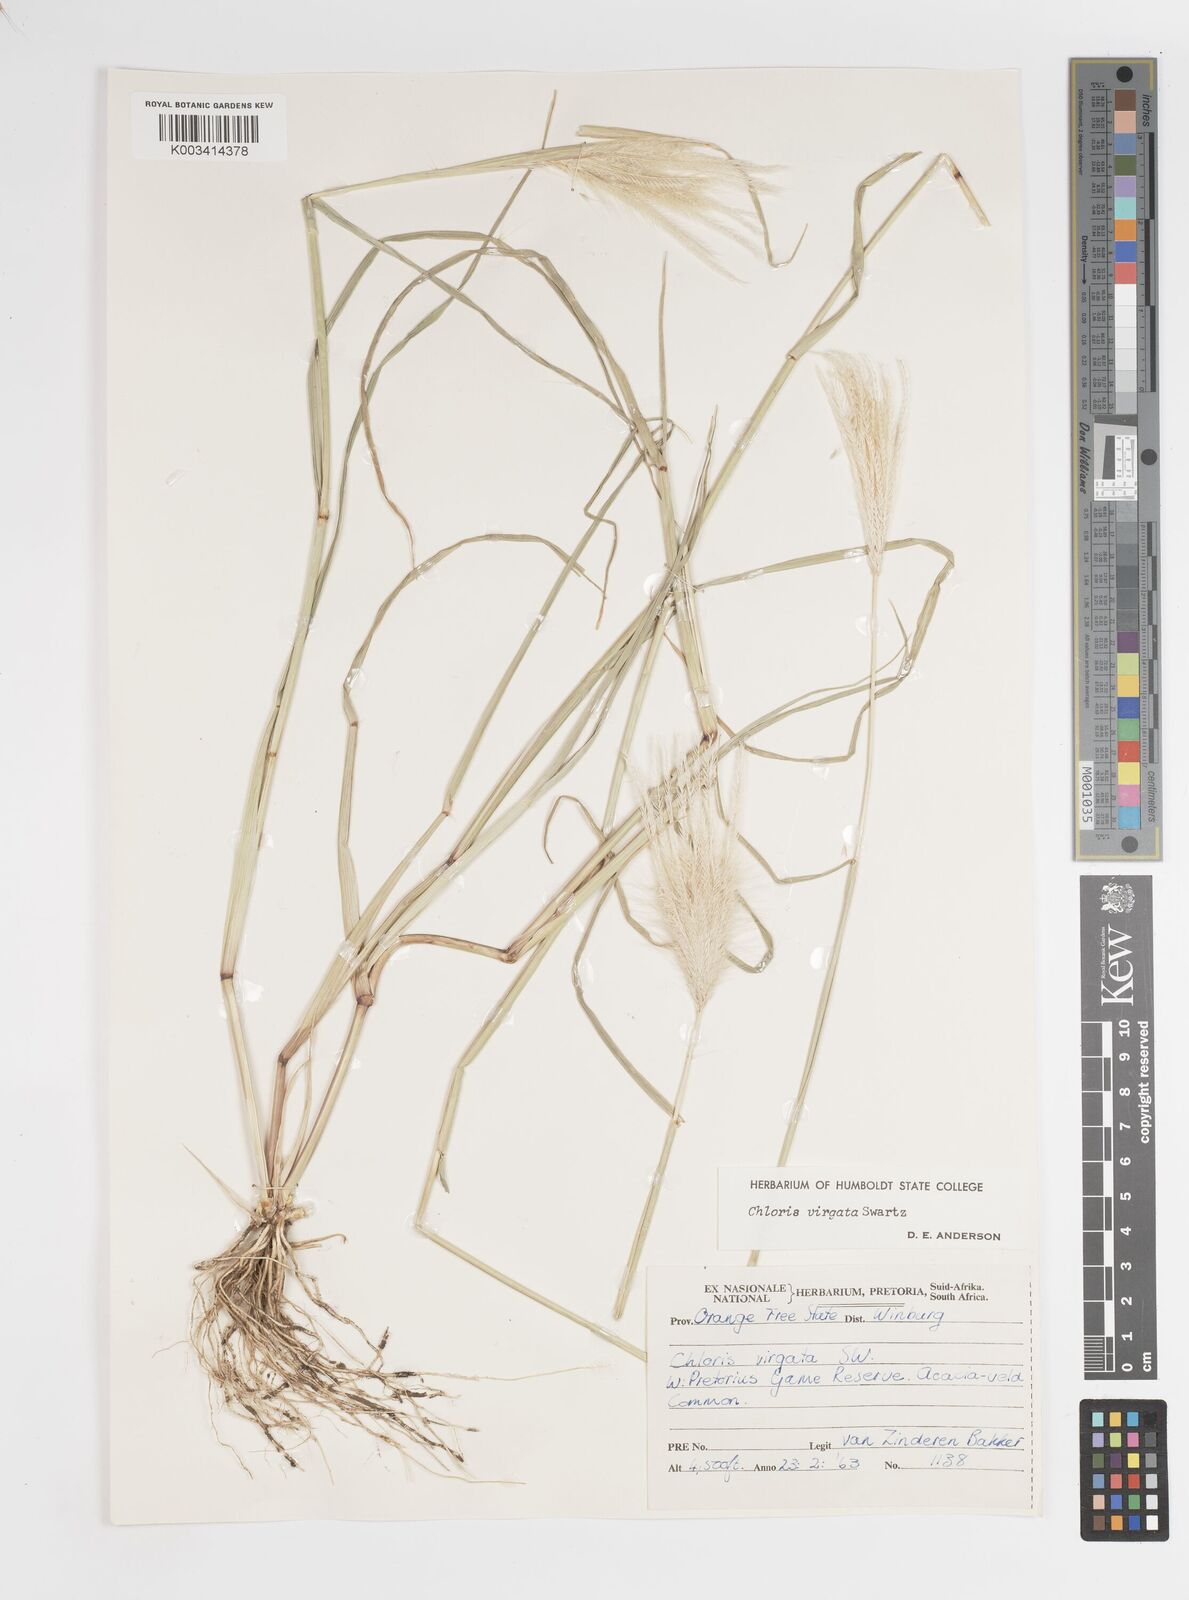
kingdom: Plantae
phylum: Tracheophyta
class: Liliopsida
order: Poales
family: Poaceae
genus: Chloris
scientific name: Chloris virgata
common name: Feathery rhodes-grass
